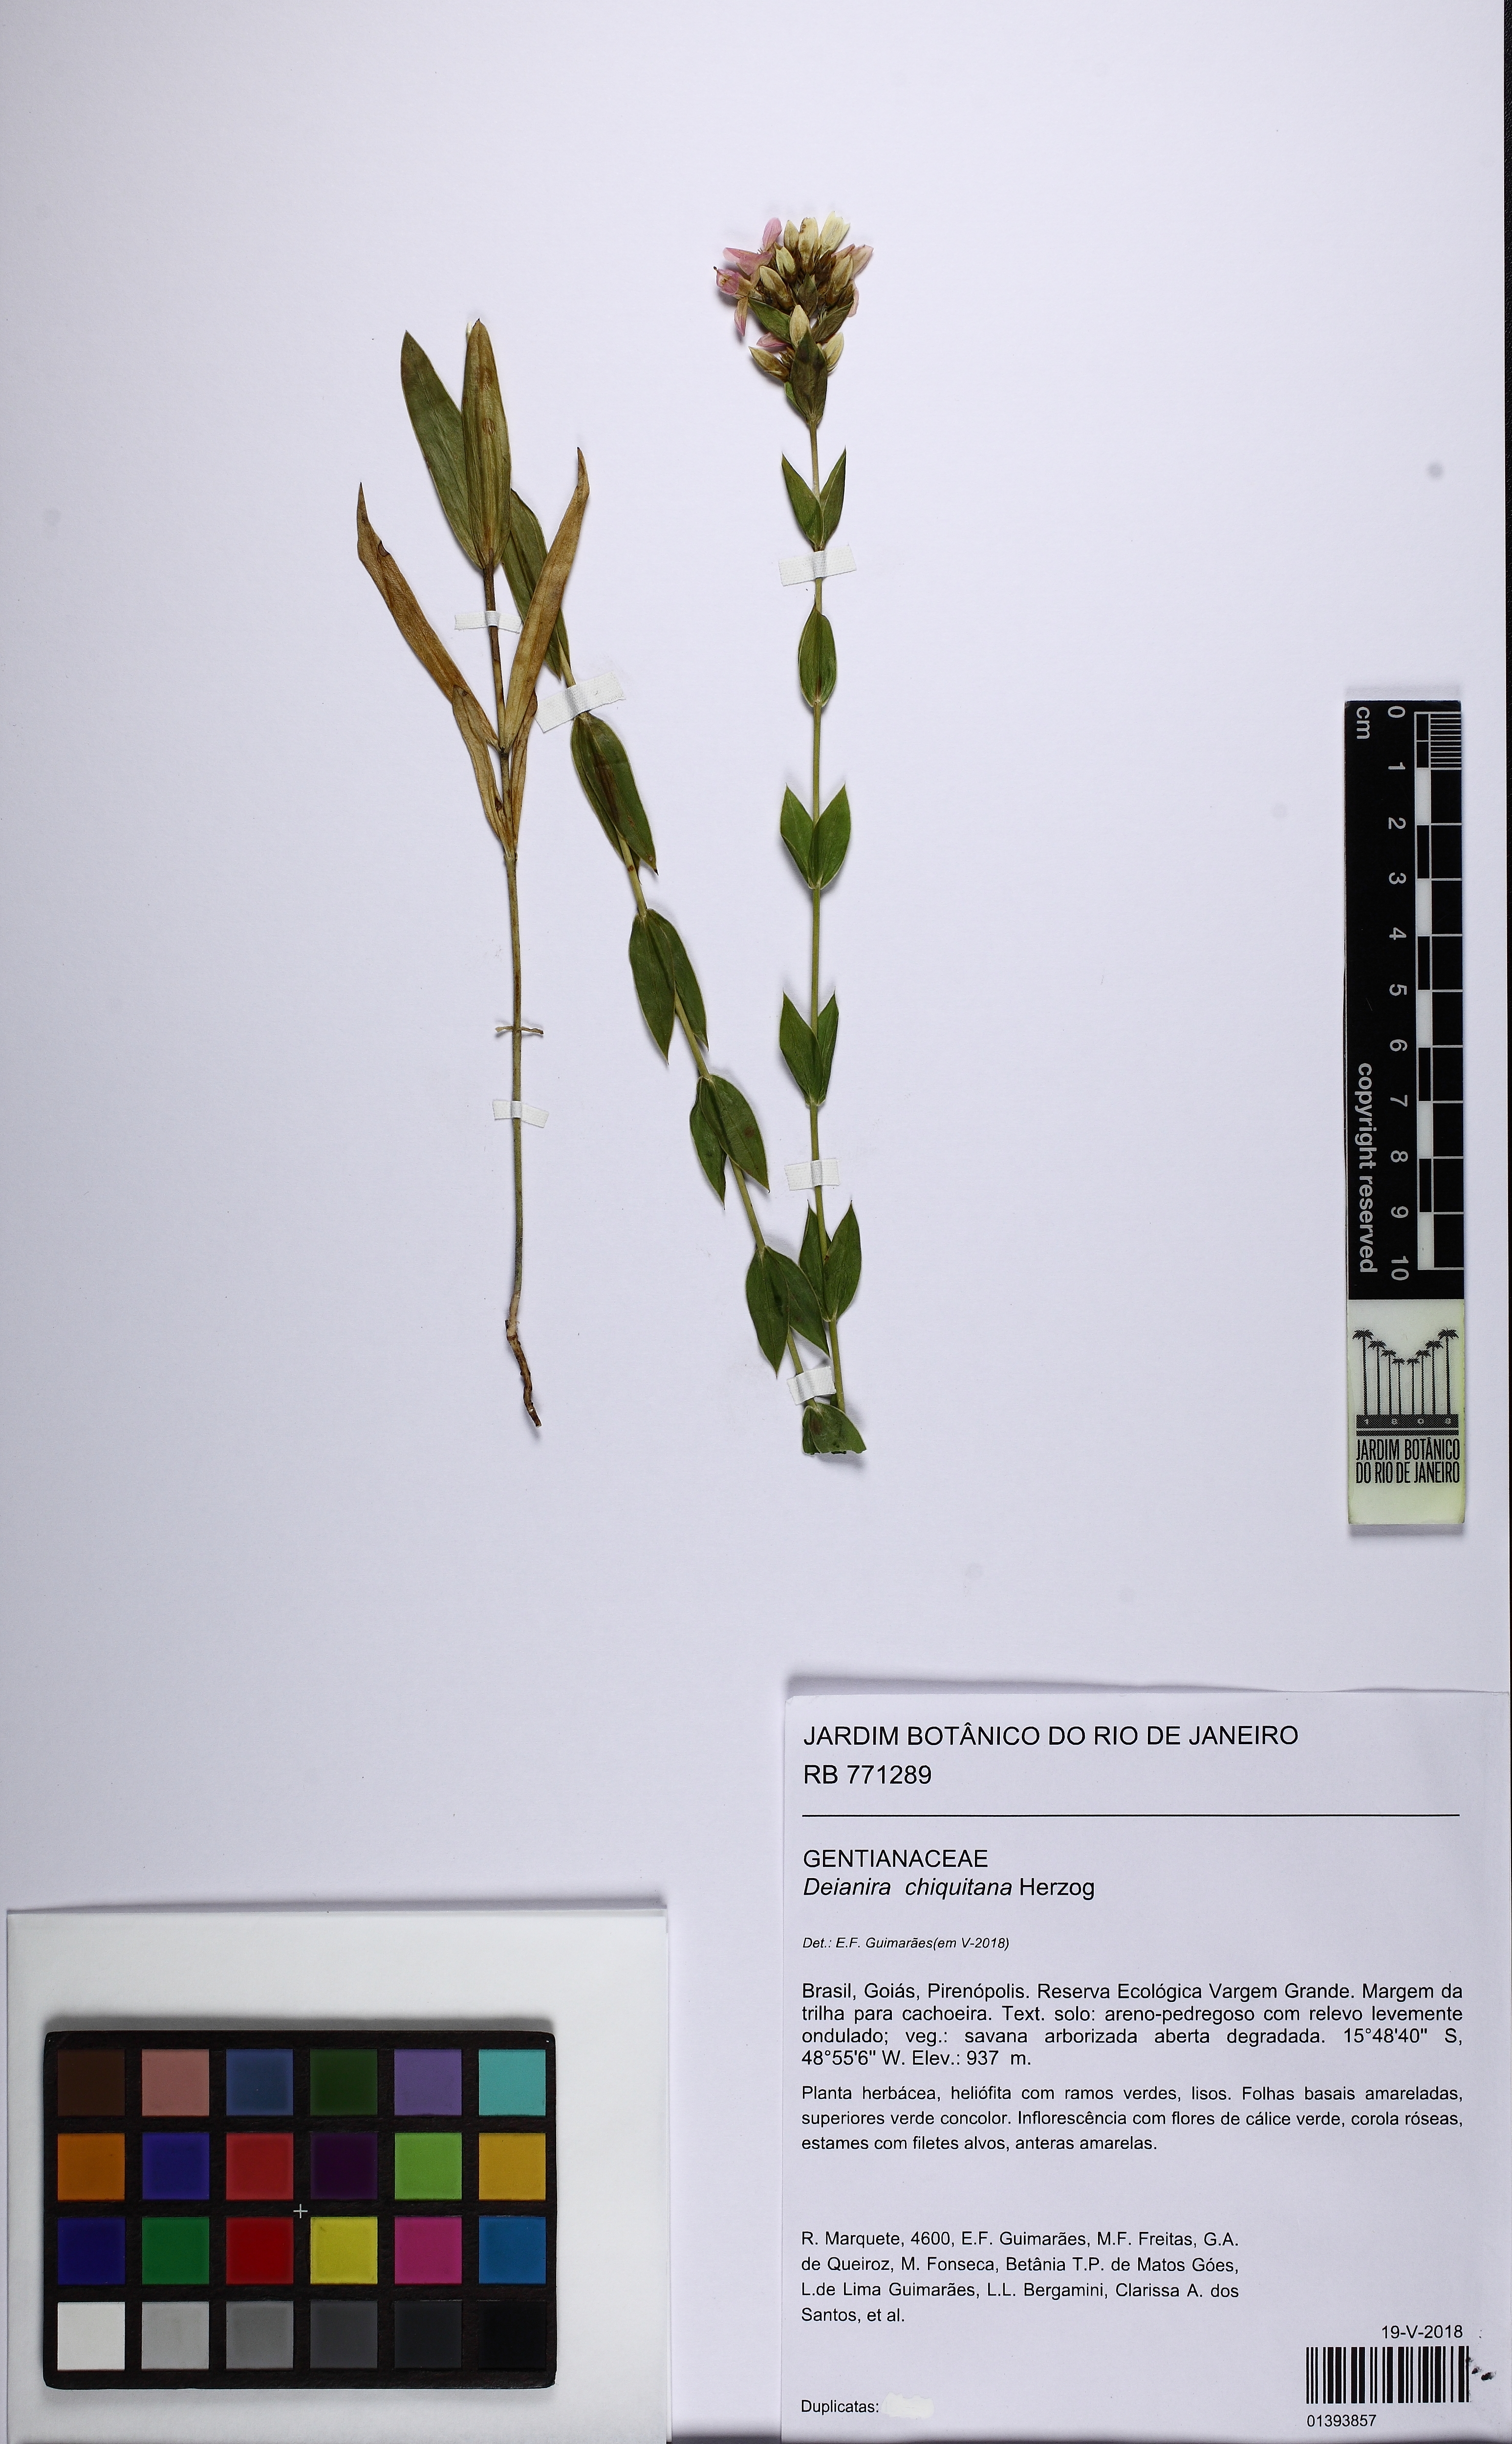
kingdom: Plantae
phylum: Tracheophyta
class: Magnoliopsida
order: Gentianales
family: Gentianaceae
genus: Deianira
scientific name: Deianira chiquitana
